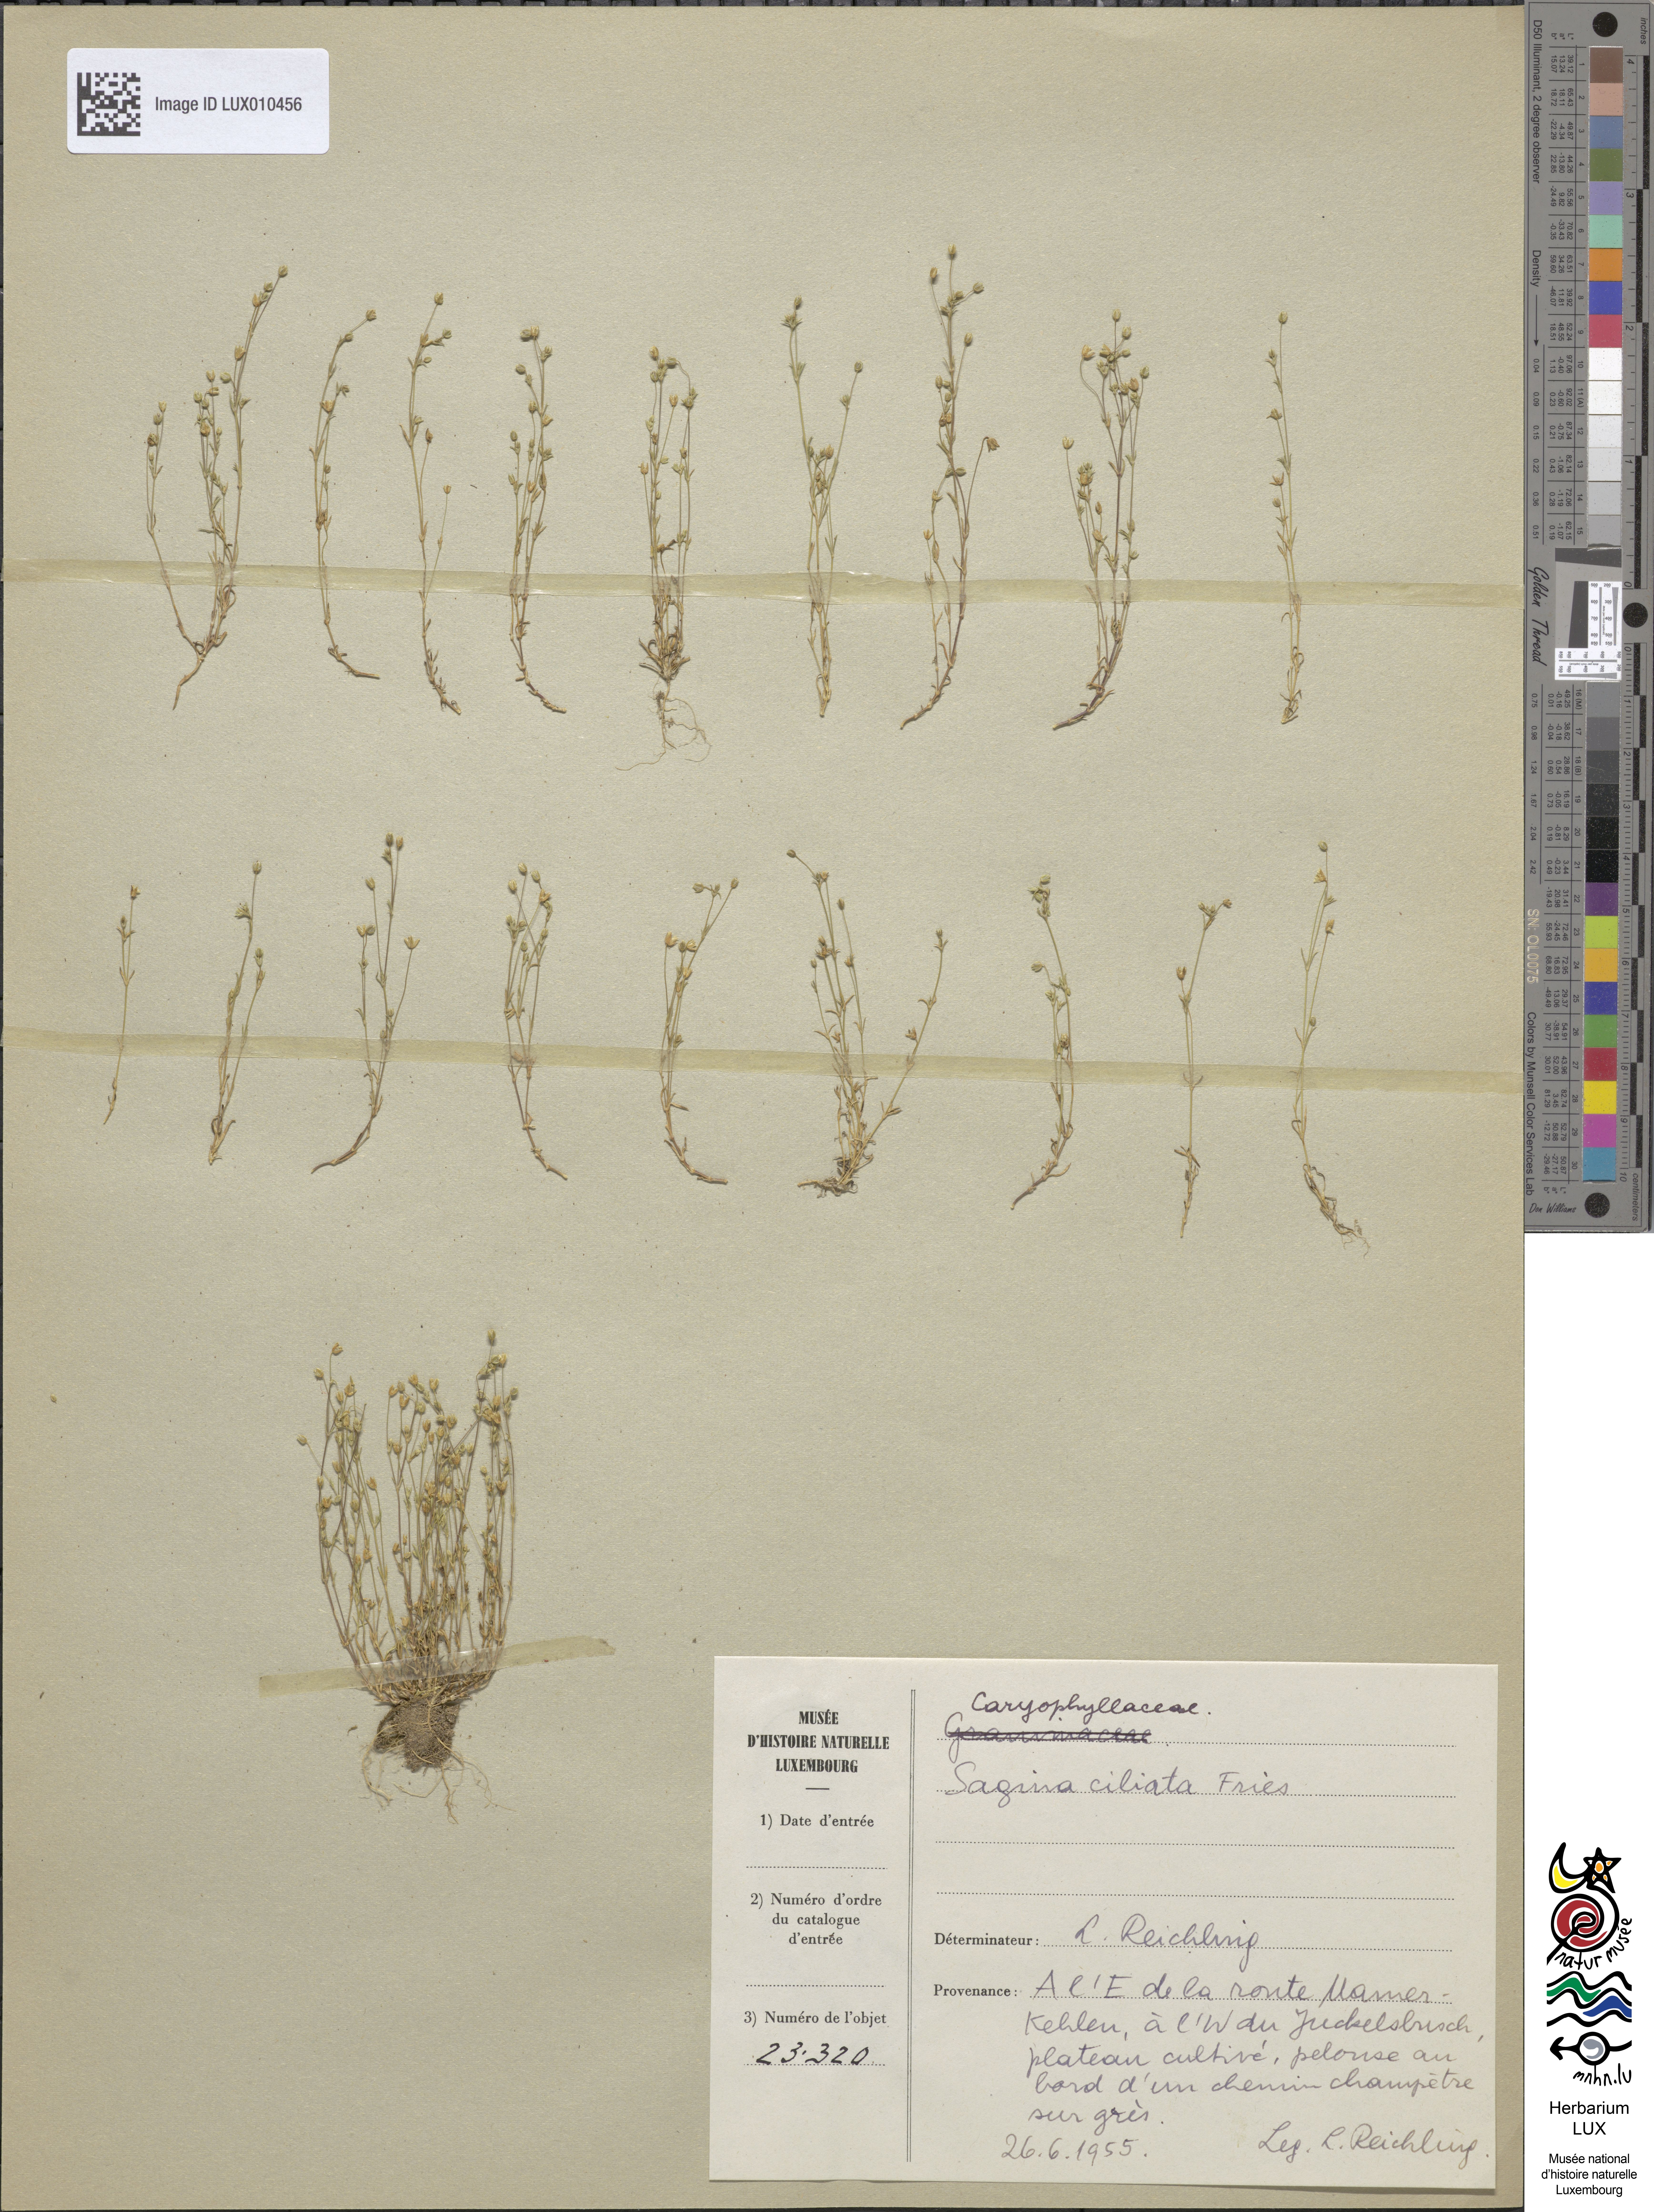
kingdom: Plantae
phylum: Tracheophyta
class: Magnoliopsida
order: Caryophyllales
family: Caryophyllaceae
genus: Sagina
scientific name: Sagina apetala
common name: Annual pearlwort
